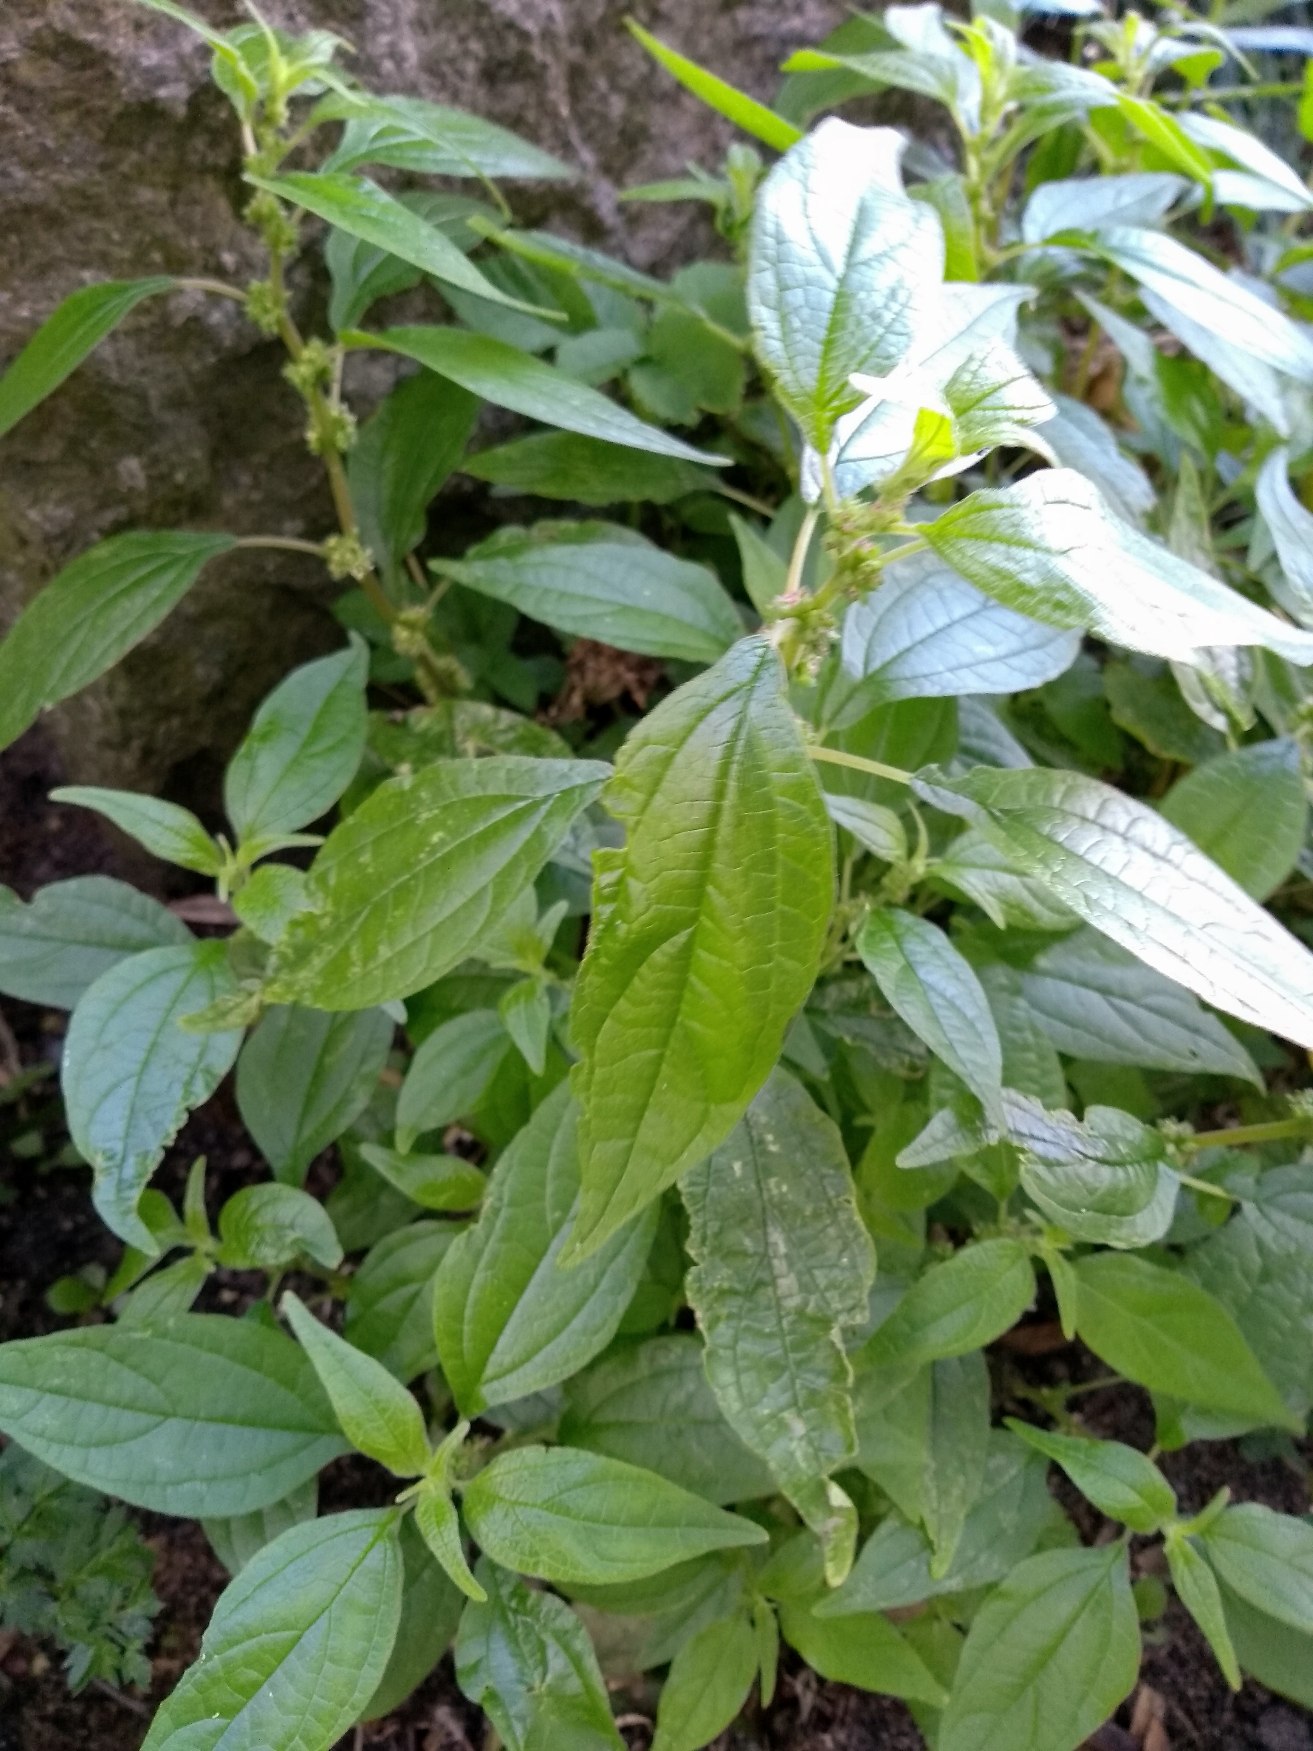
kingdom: Plantae
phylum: Tracheophyta
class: Magnoliopsida
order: Rosales
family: Urticaceae
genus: Parietaria
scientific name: Parietaria officinalis
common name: Almindelig springknap
